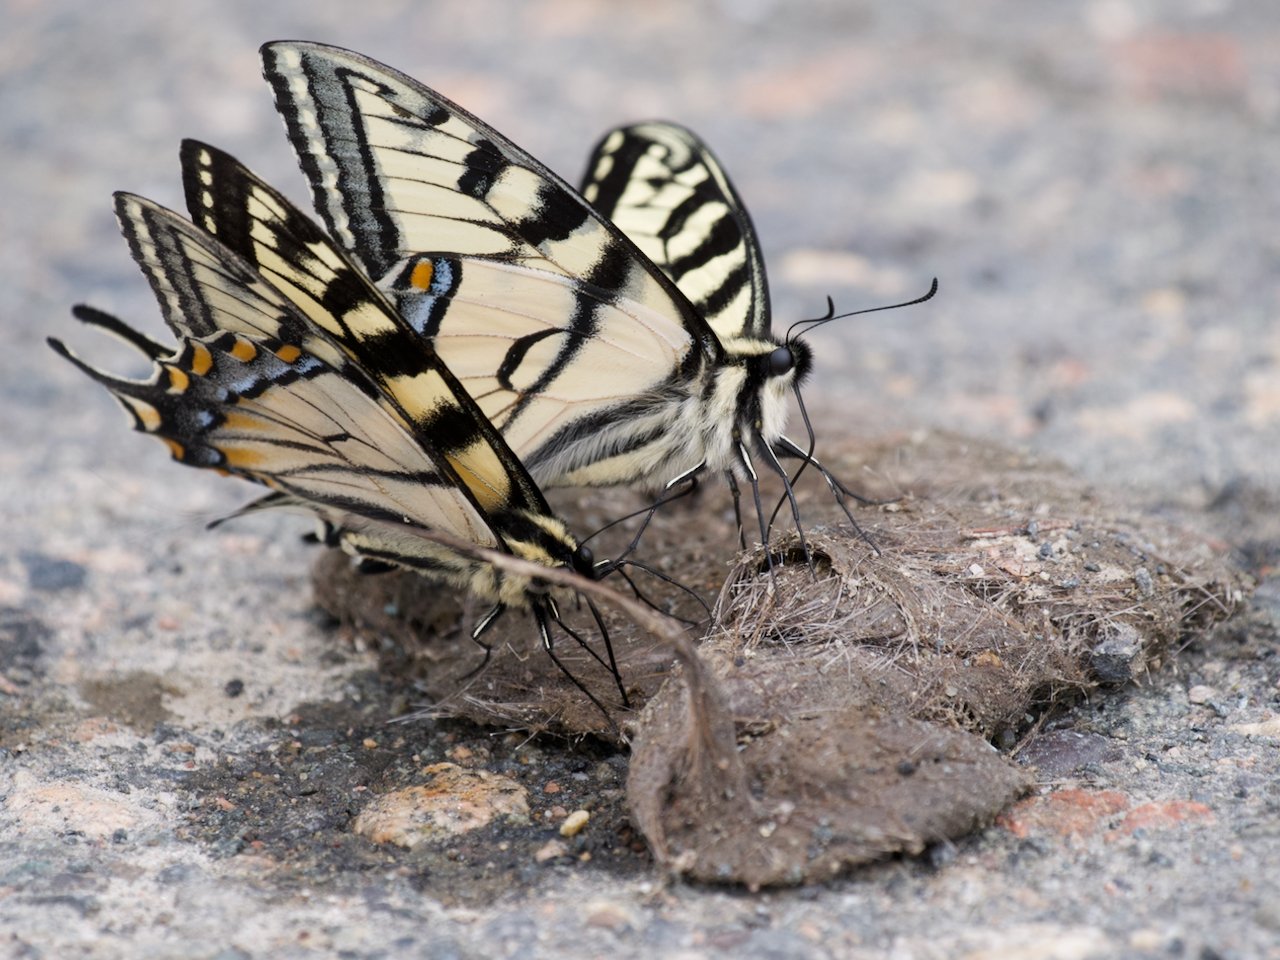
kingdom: Animalia
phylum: Arthropoda
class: Insecta
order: Lepidoptera
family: Papilionidae
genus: Pterourus
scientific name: Pterourus canadensis
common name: Canadian Tiger Swallowtail
